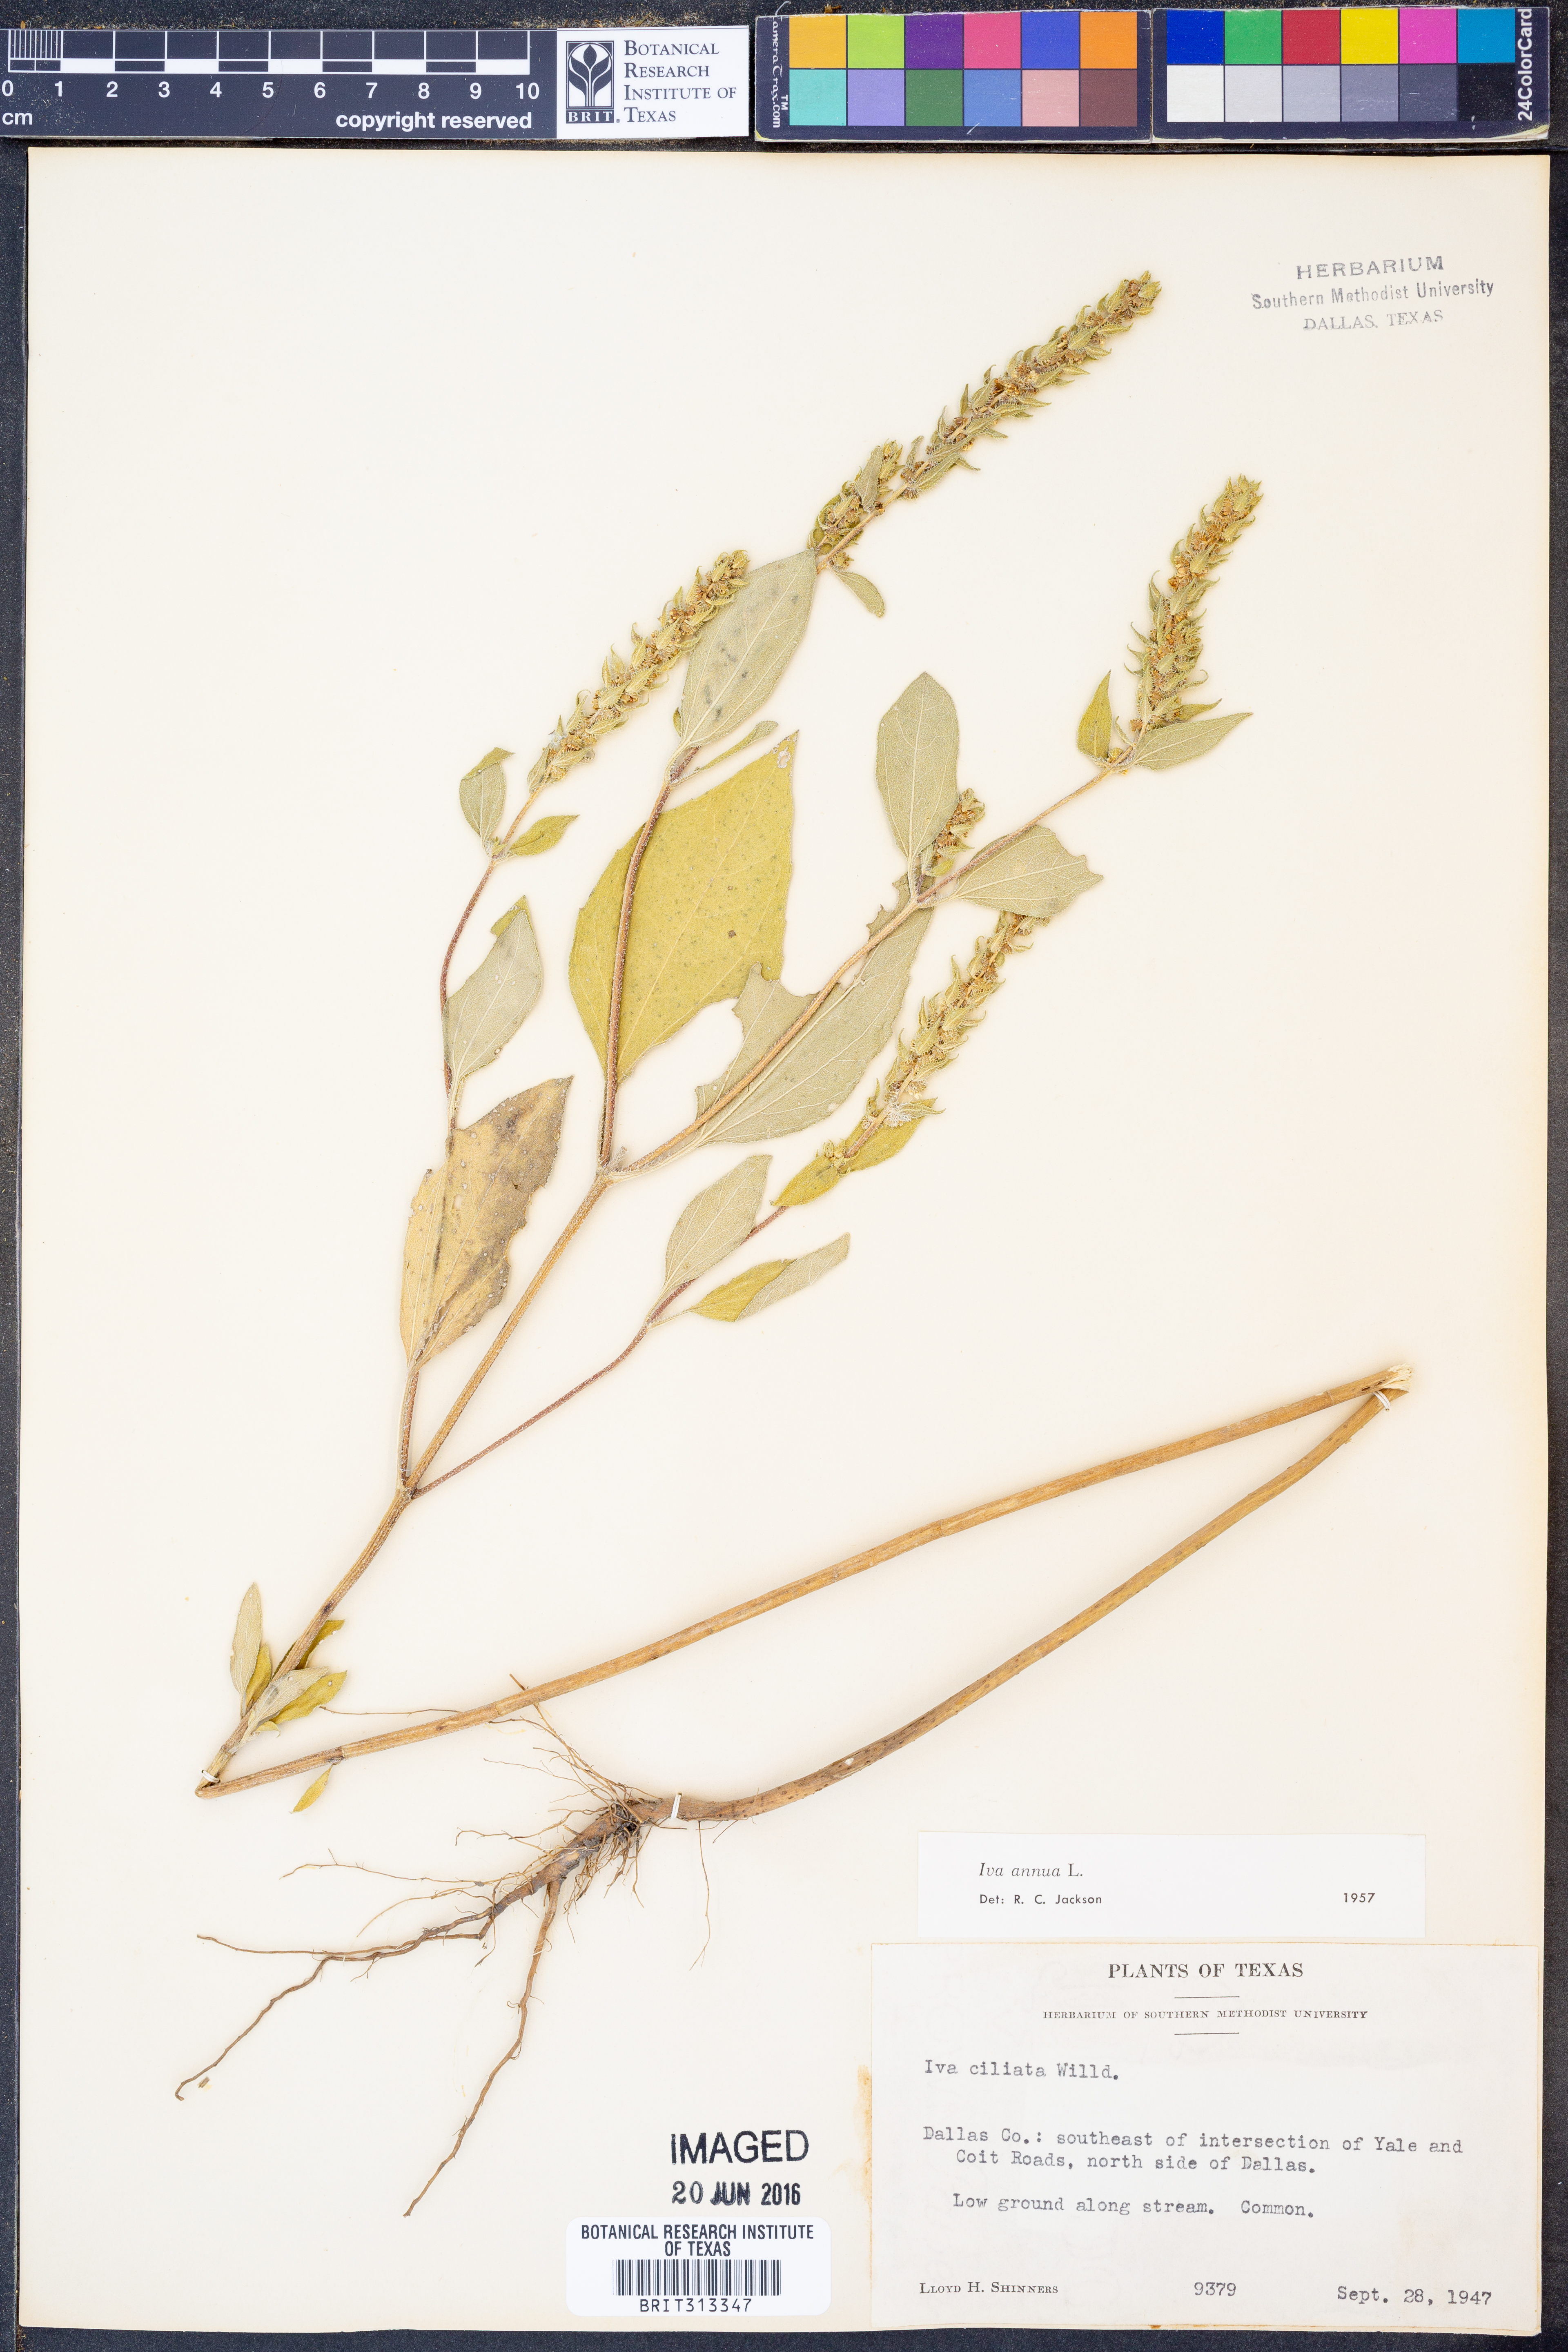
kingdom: Plantae
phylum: Tracheophyta
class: Magnoliopsida
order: Asterales
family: Asteraceae
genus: Iva
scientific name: Iva annua
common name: Marsh-elder
